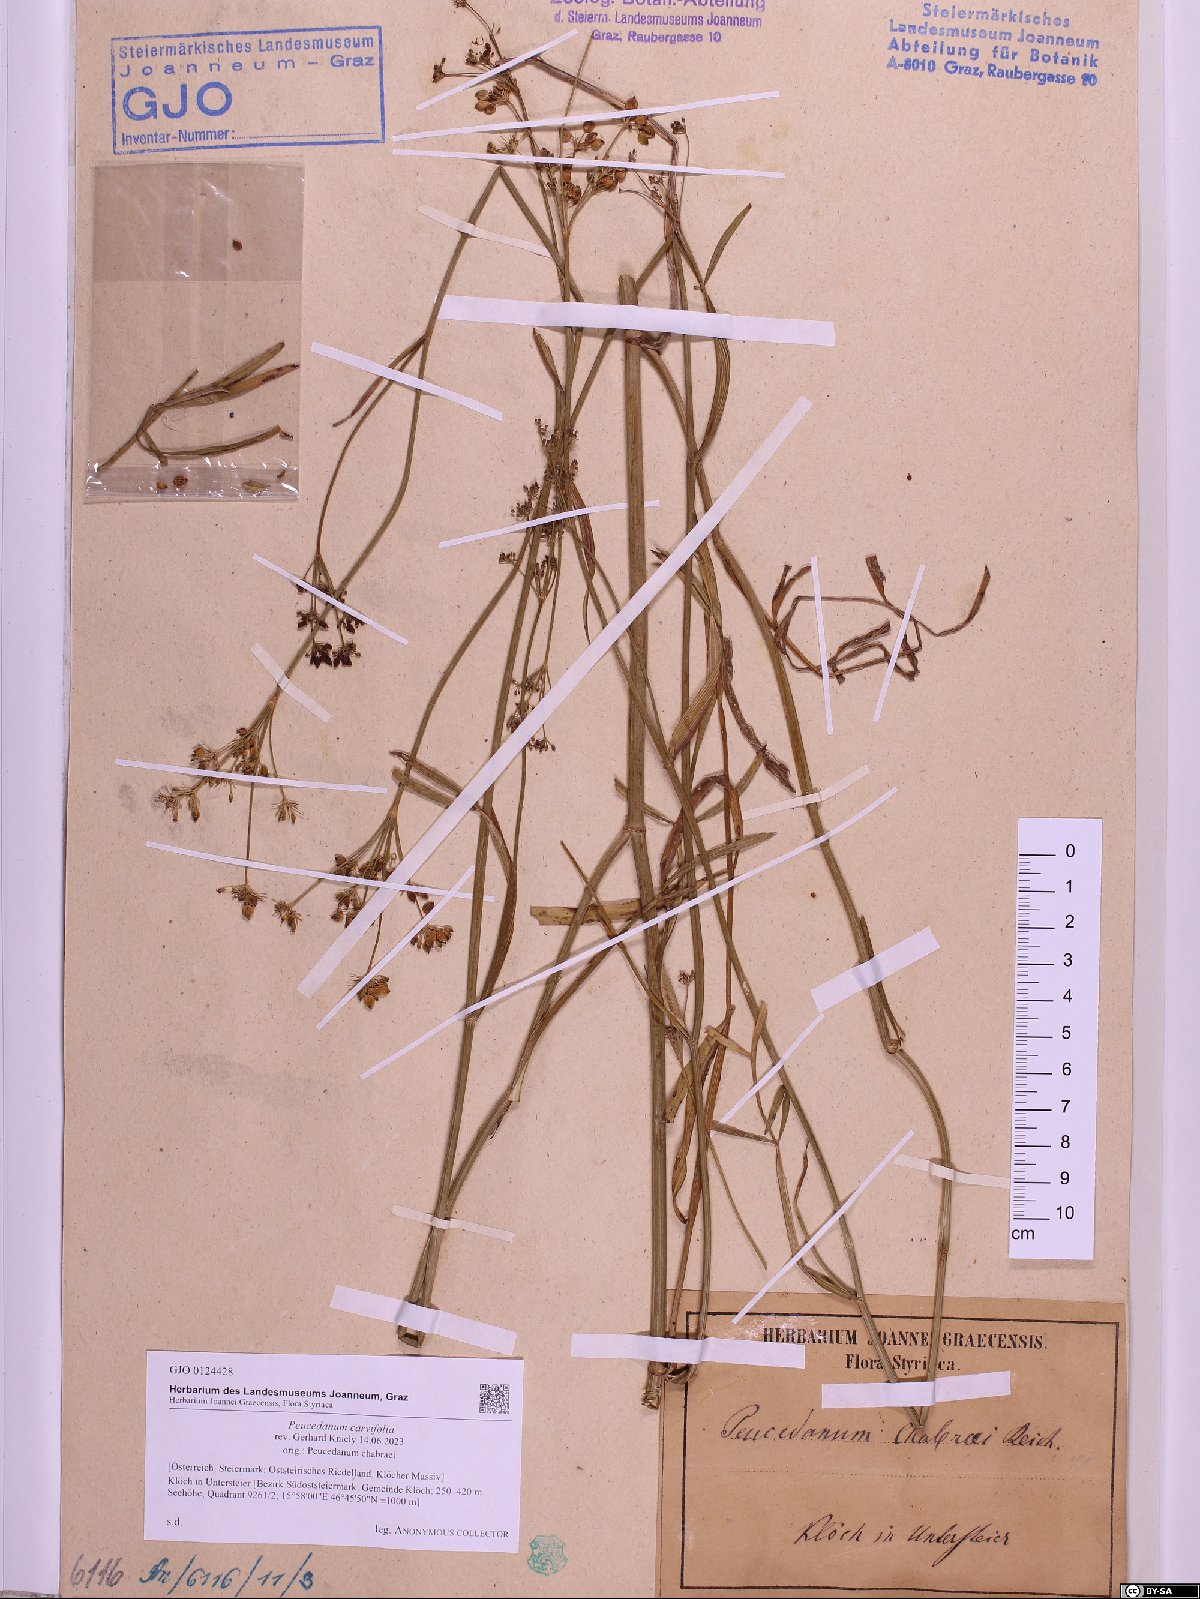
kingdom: Plantae
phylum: Tracheophyta
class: Magnoliopsida
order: Apiales
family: Apiaceae
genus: Dichoropetalum
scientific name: Dichoropetalum carvifolia
